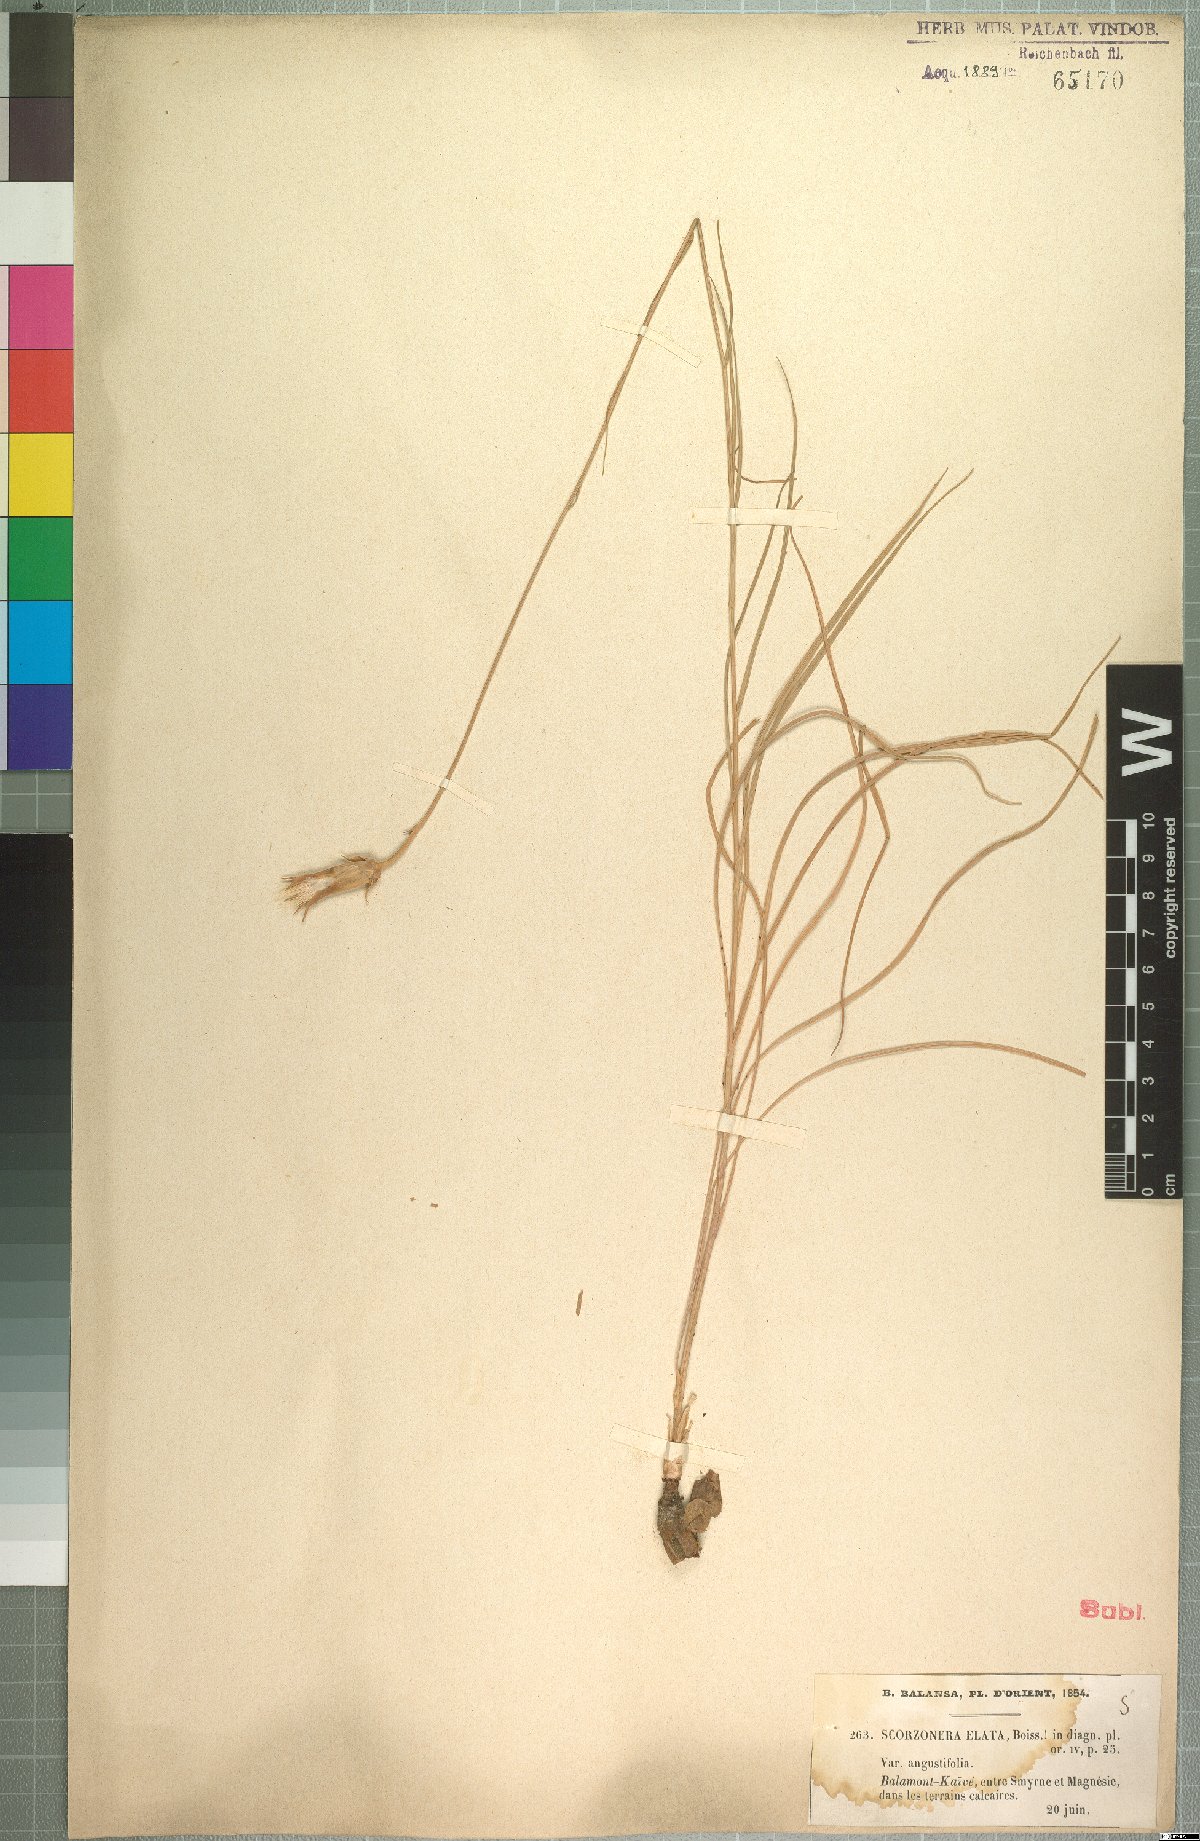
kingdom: Plantae
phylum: Tracheophyta
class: Magnoliopsida
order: Asterales
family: Asteraceae
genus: Candollea
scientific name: Candollea elata
